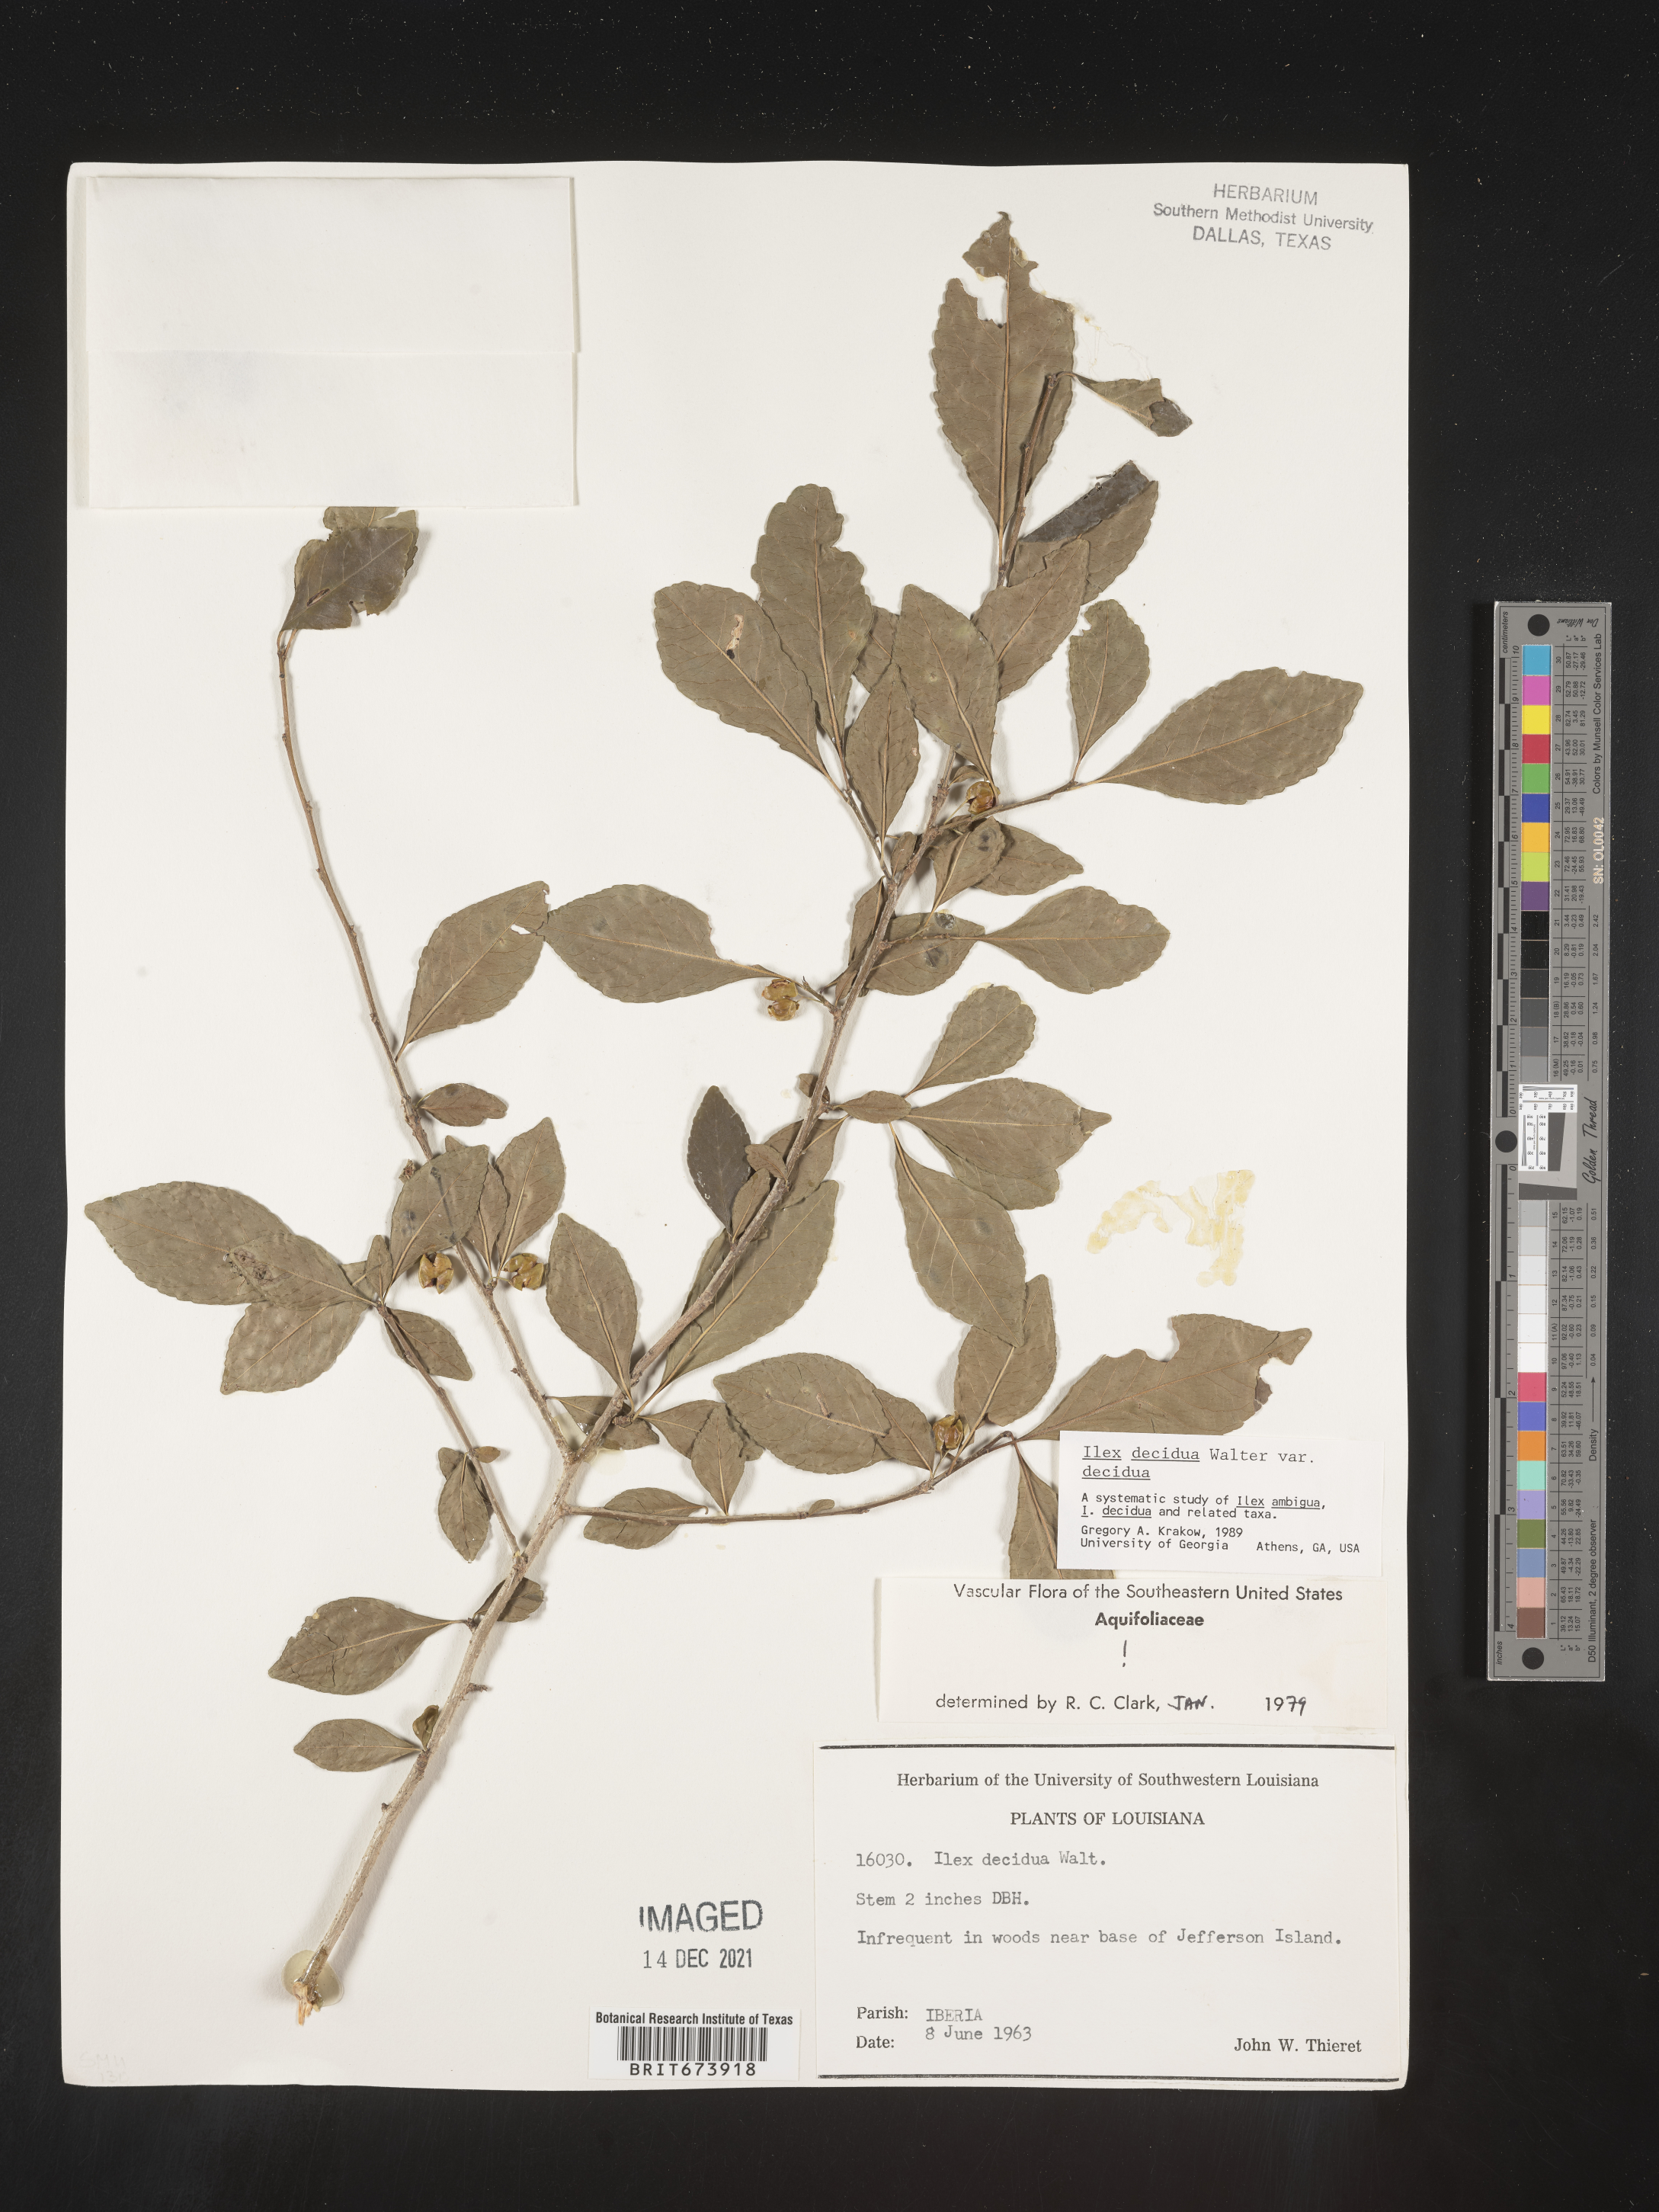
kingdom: Plantae
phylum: Tracheophyta
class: Magnoliopsida
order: Aquifoliales
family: Aquifoliaceae
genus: Ilex
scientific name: Ilex decidua
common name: Possum-haw
